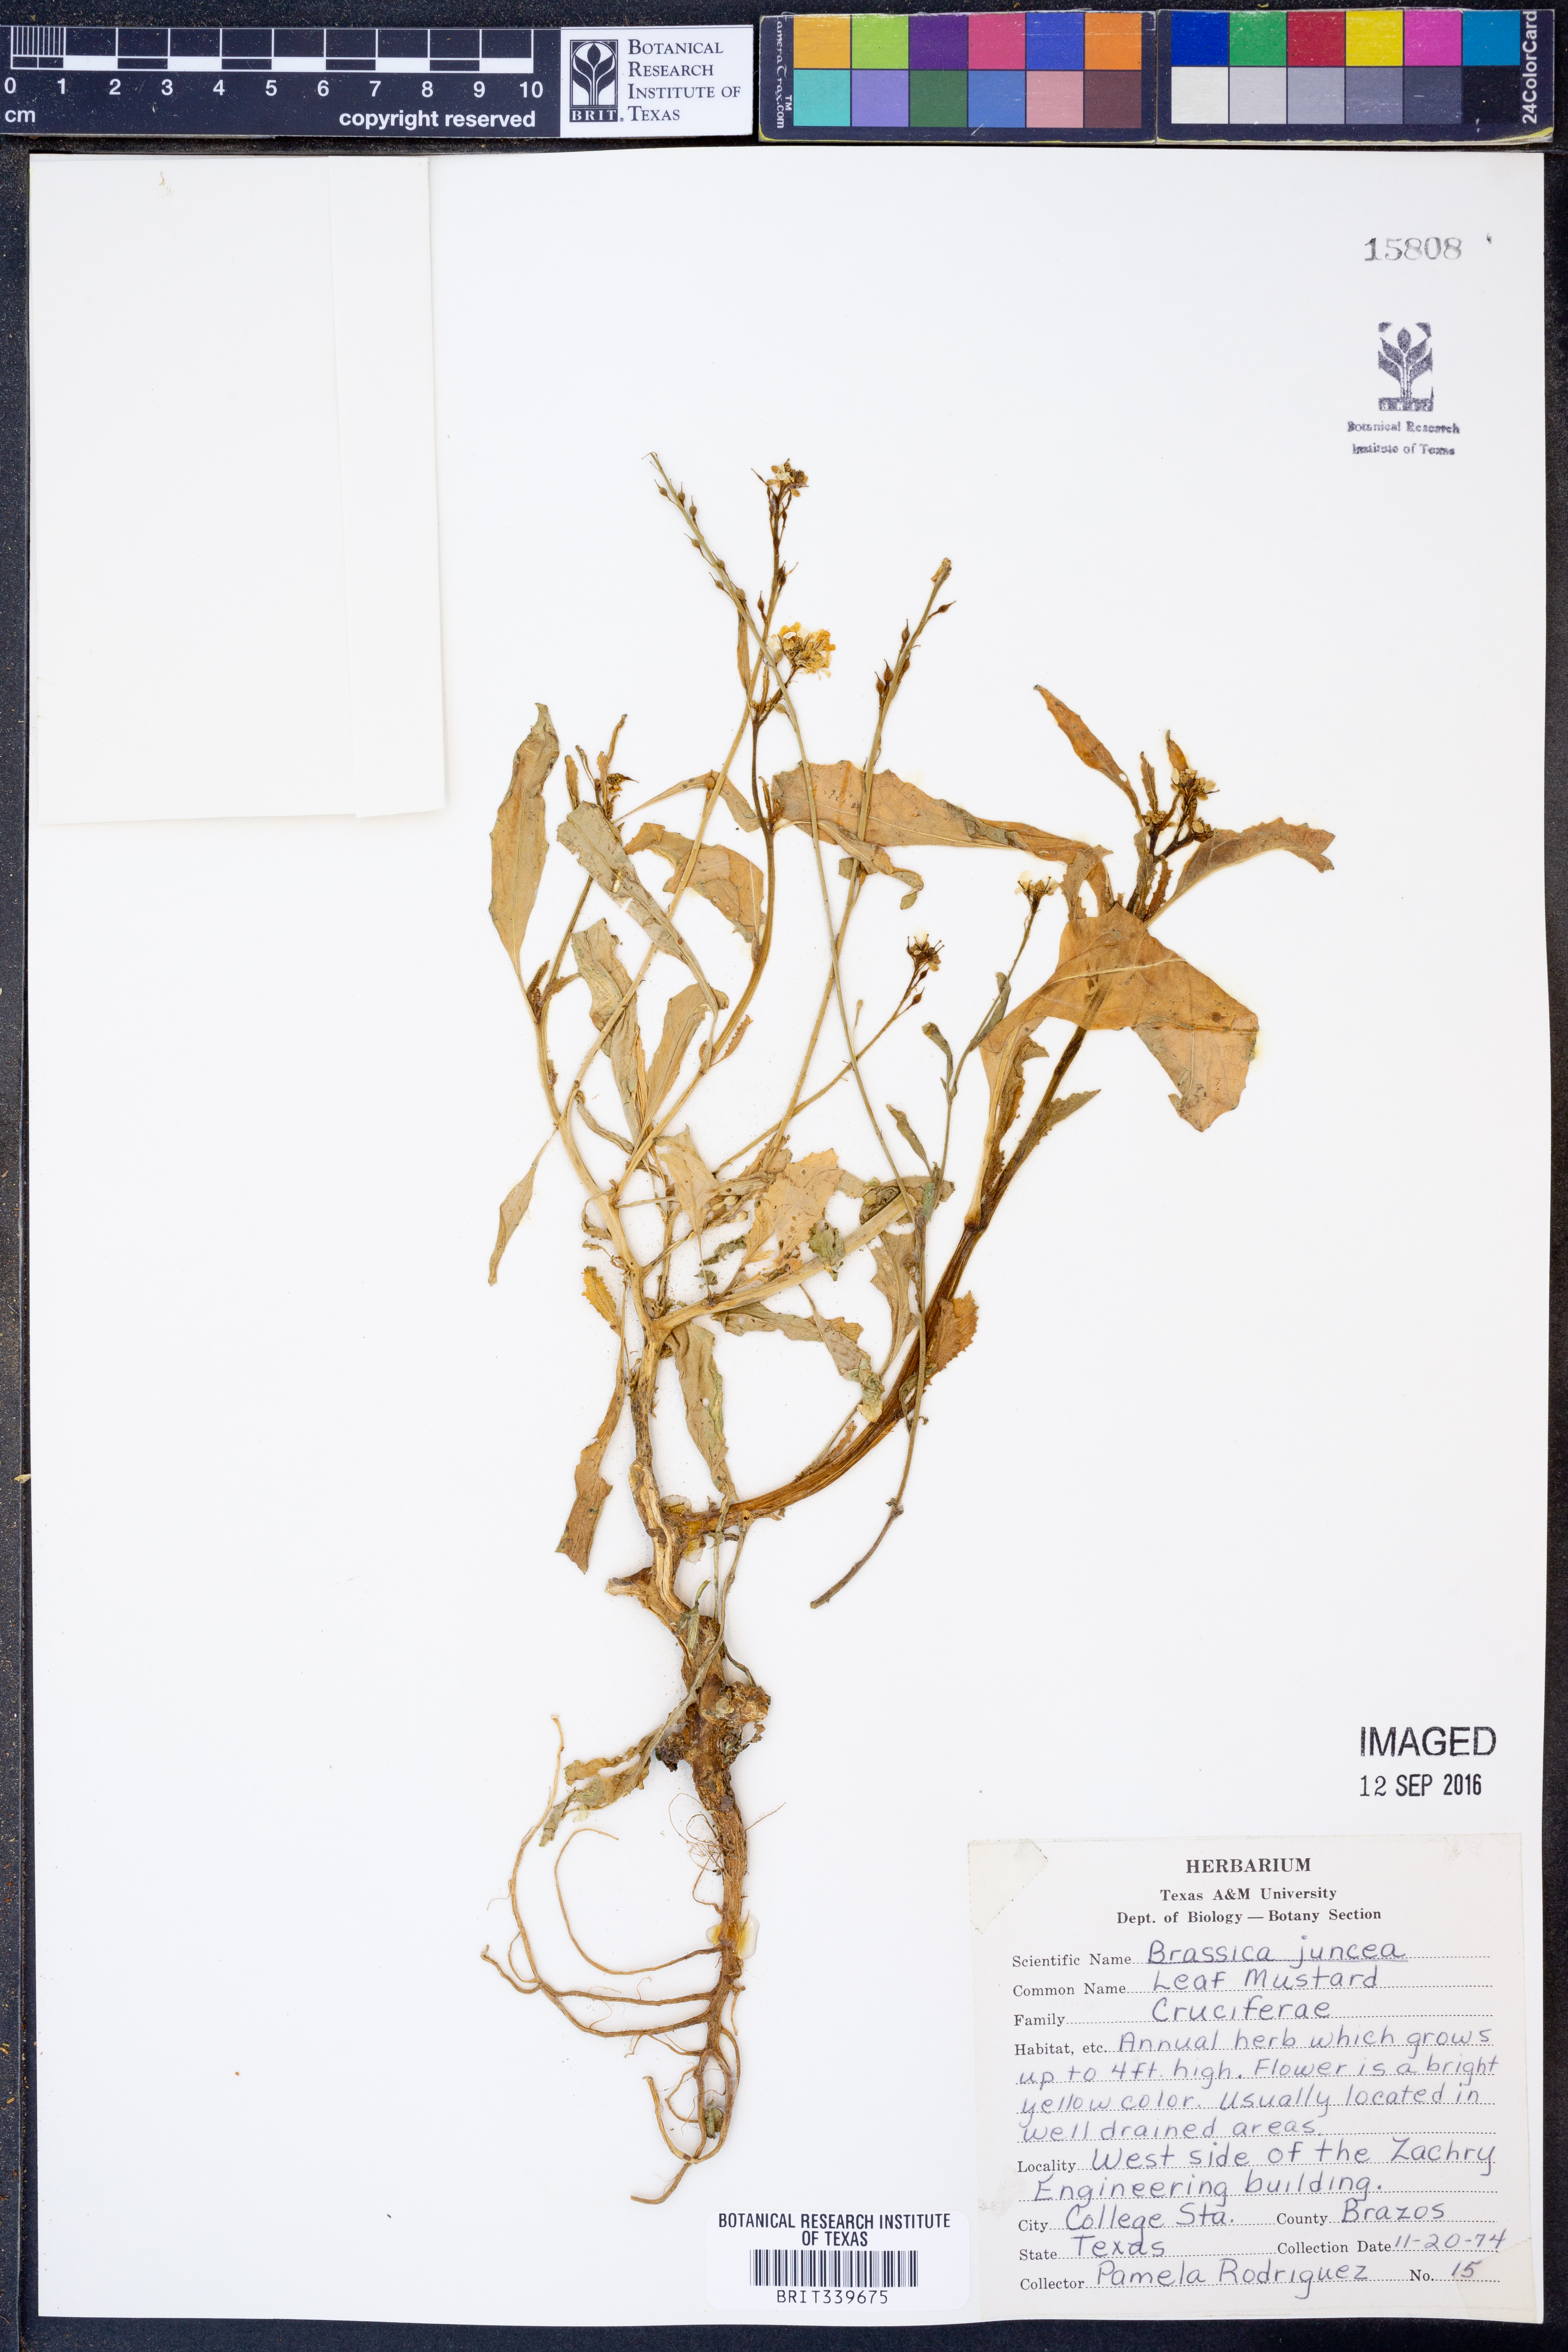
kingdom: Plantae
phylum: Tracheophyta
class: Magnoliopsida
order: Brassicales
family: Brassicaceae
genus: Brassica
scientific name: Brassica juncea
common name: Brown mustard
